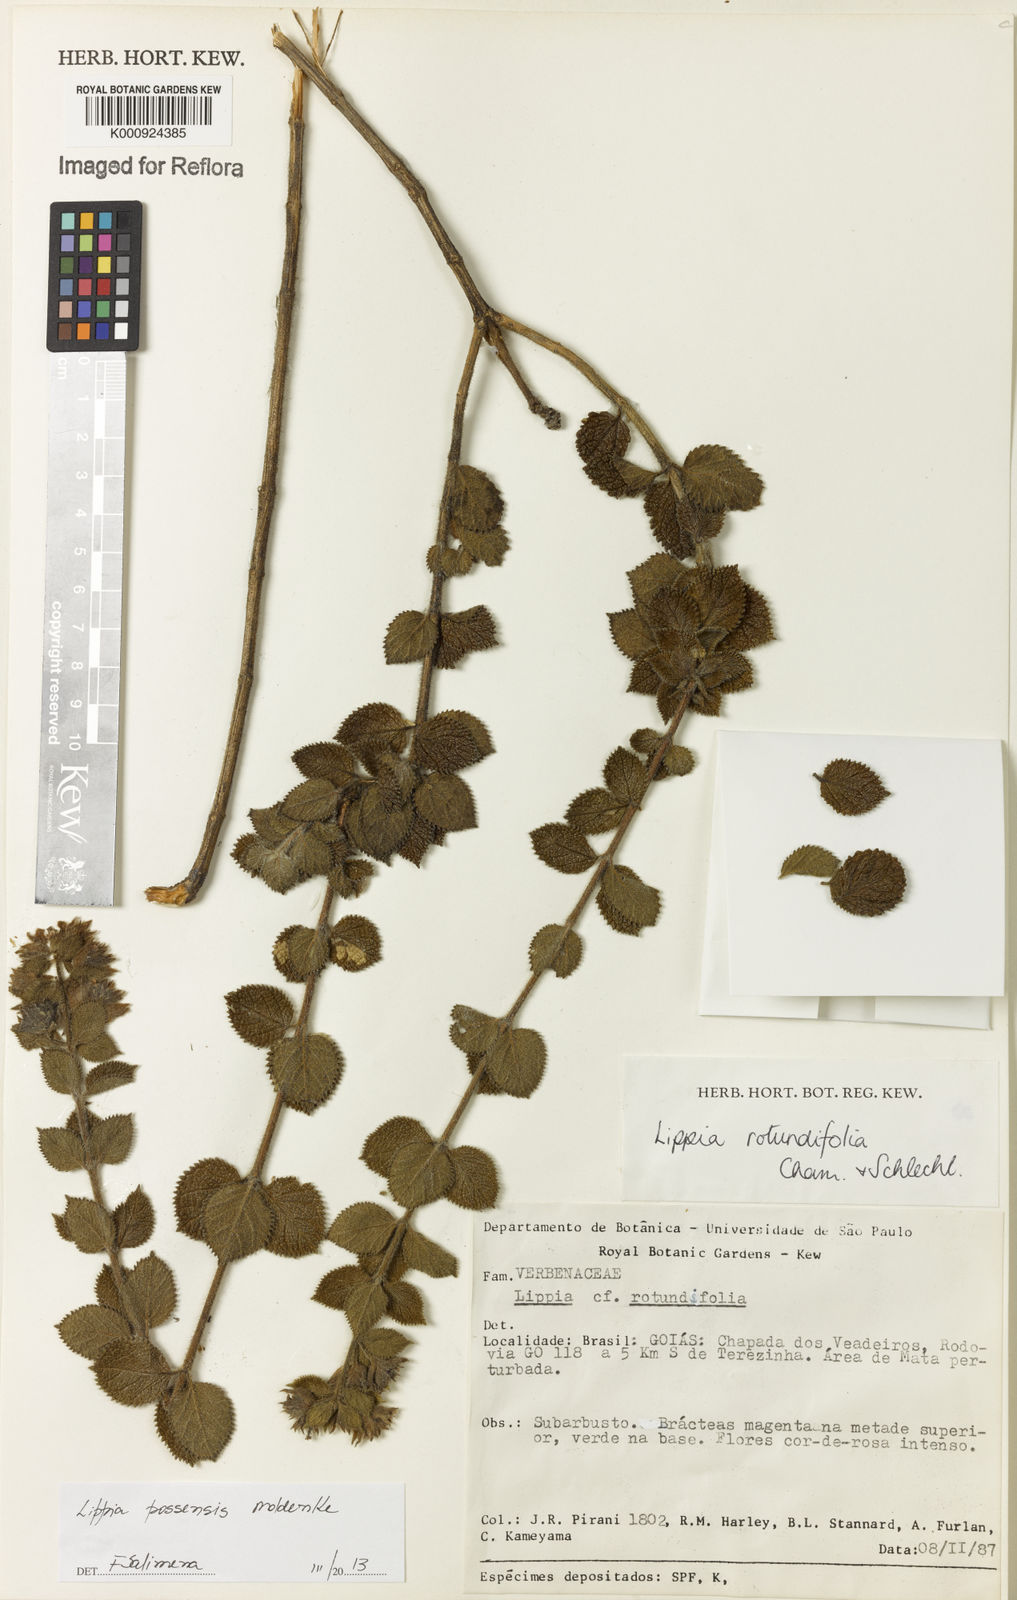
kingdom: Plantae
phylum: Tracheophyta
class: Magnoliopsida
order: Lamiales
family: Verbenaceae
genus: Lippia
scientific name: Lippia possensis
